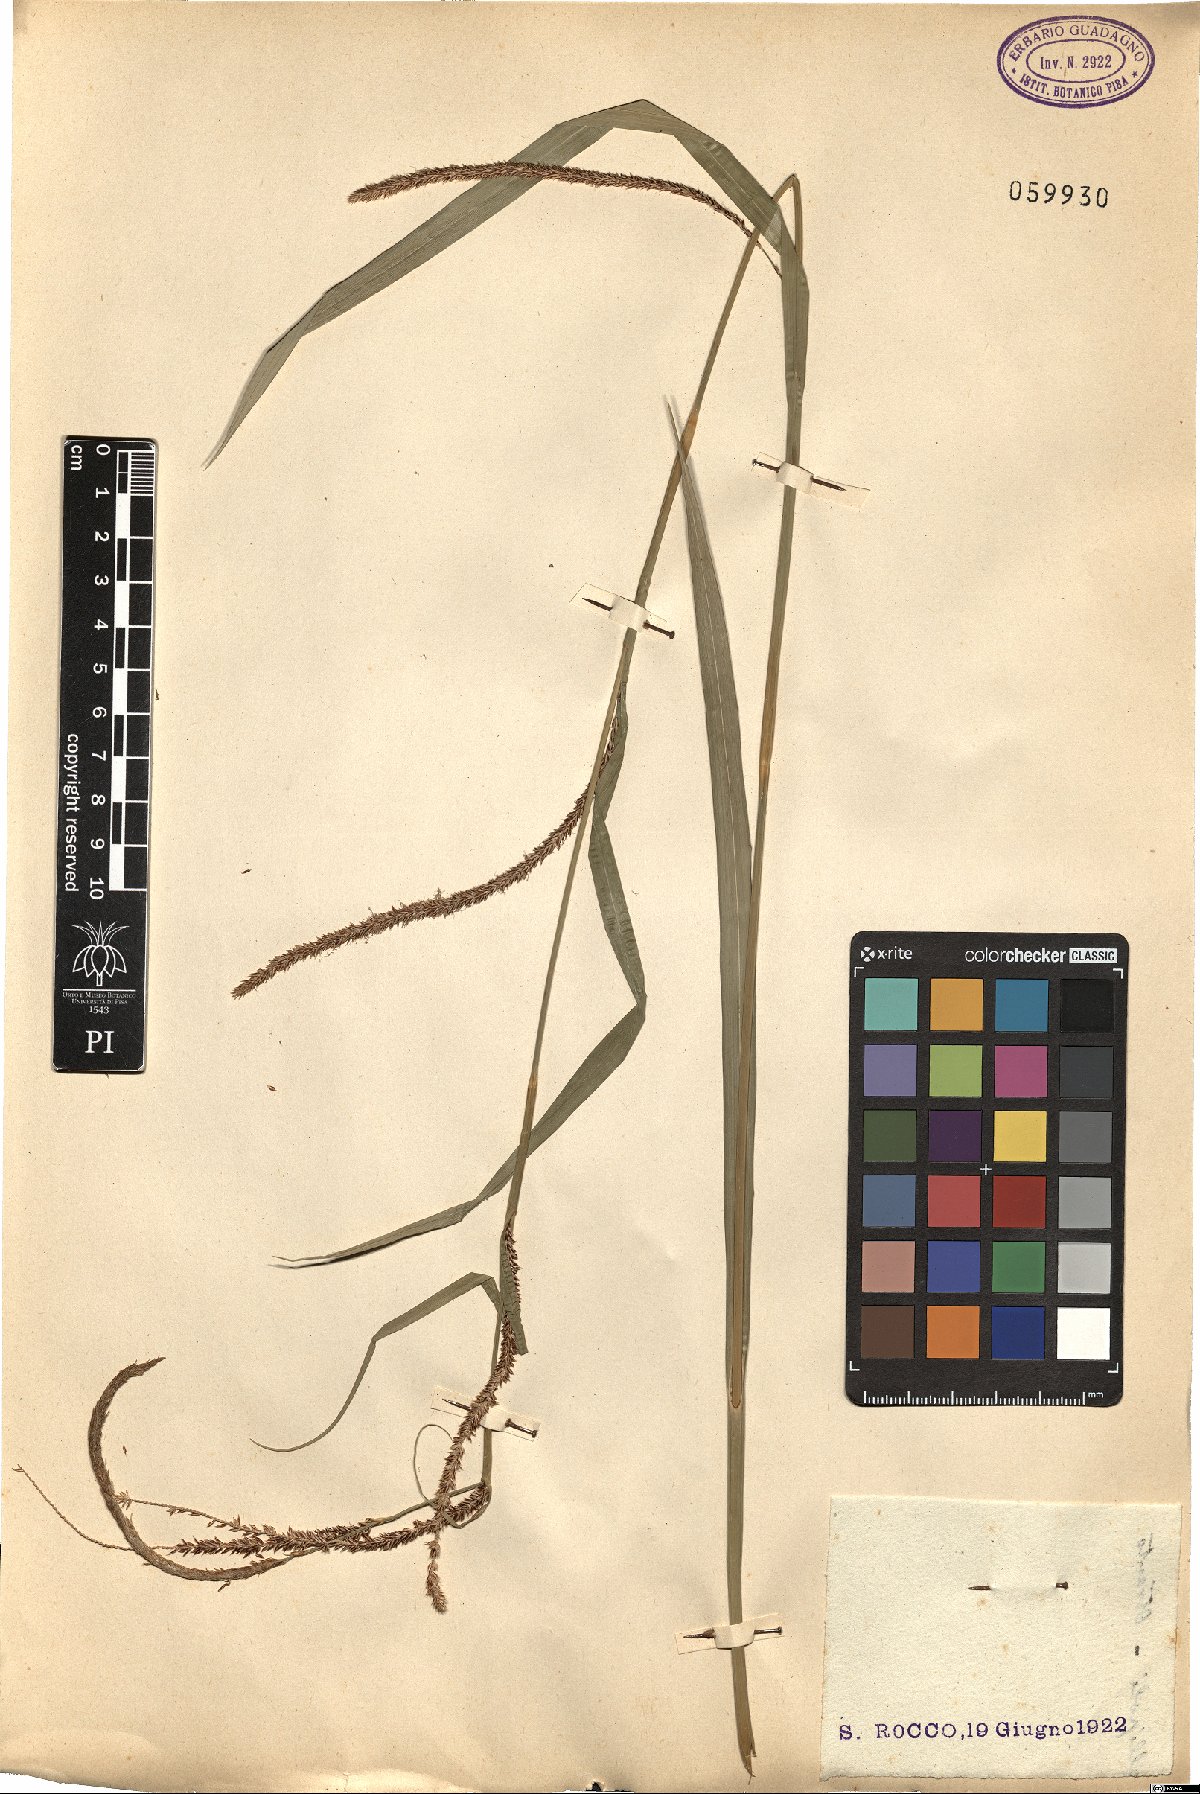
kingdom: Plantae
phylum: Tracheophyta
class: Liliopsida
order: Poales
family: Cyperaceae
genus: Carex
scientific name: Carex
